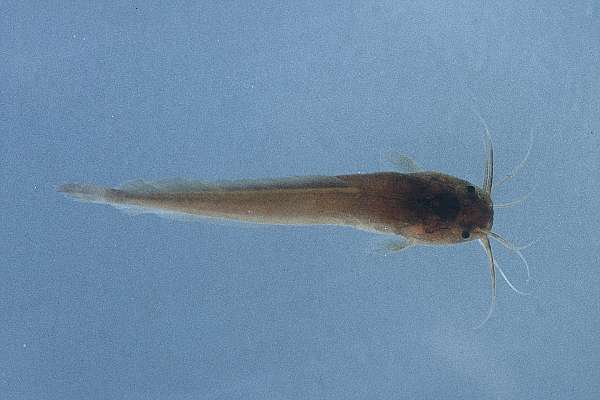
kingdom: Animalia
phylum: Chordata
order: Siluriformes
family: Clariidae
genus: Clarias
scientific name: Clarias gariepinus
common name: African catfish
